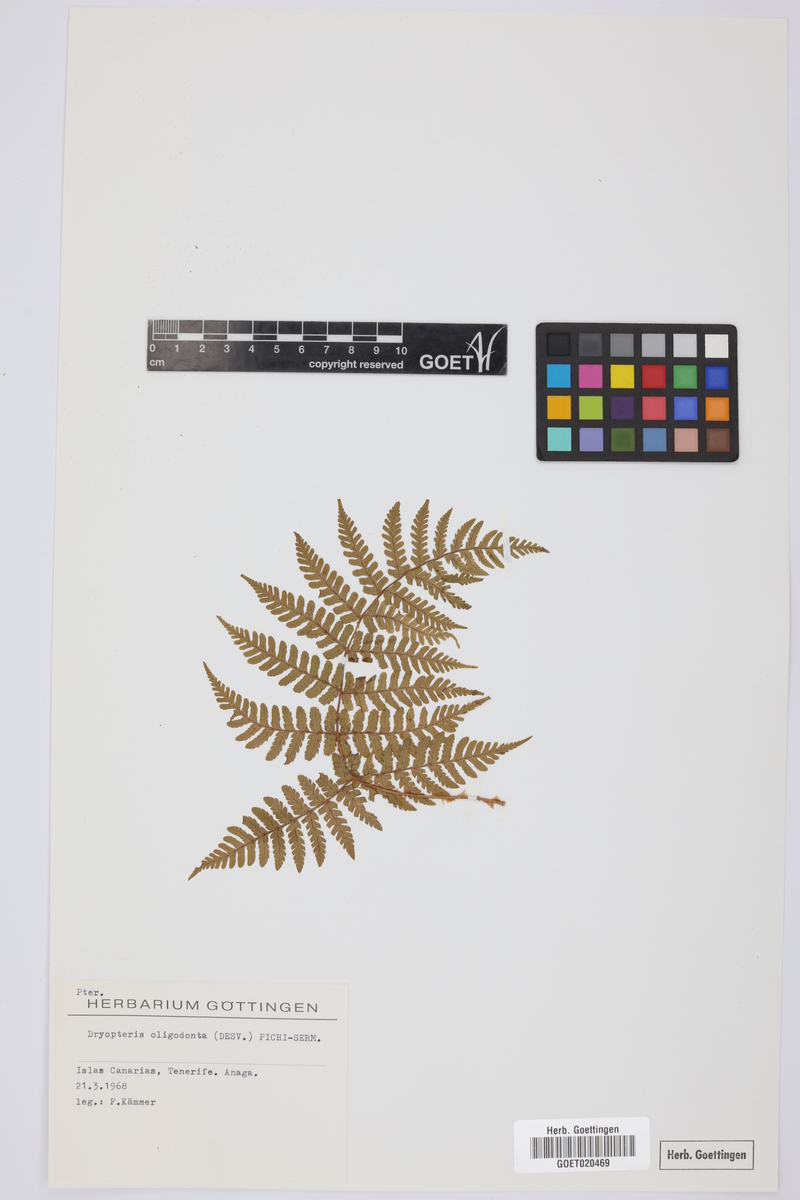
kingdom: Plantae
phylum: Tracheophyta
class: Polypodiopsida
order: Polypodiales
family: Dryopteridaceae
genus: Dryopteris
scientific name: Dryopteris oligodonta
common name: Canarian male-fern
